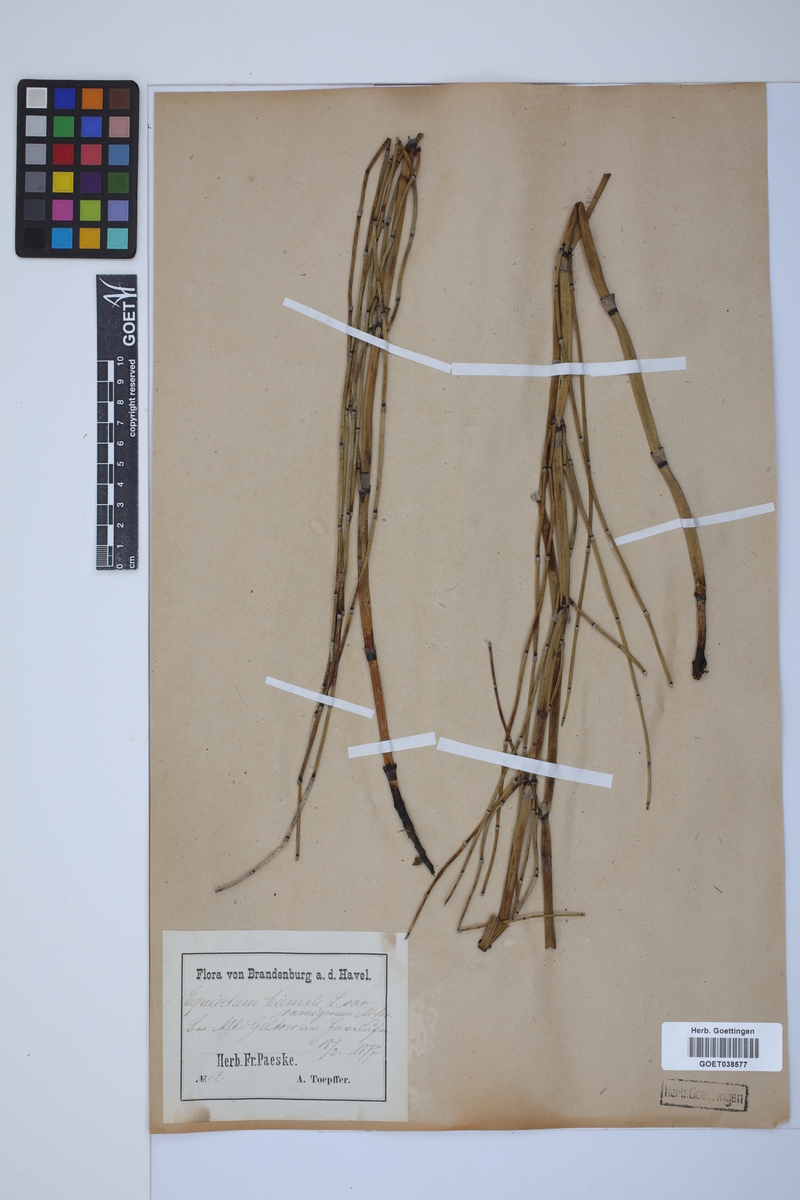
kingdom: Plantae
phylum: Tracheophyta
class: Polypodiopsida
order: Equisetales
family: Equisetaceae
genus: Equisetum
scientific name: Equisetum hyemale
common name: Rough horsetail
